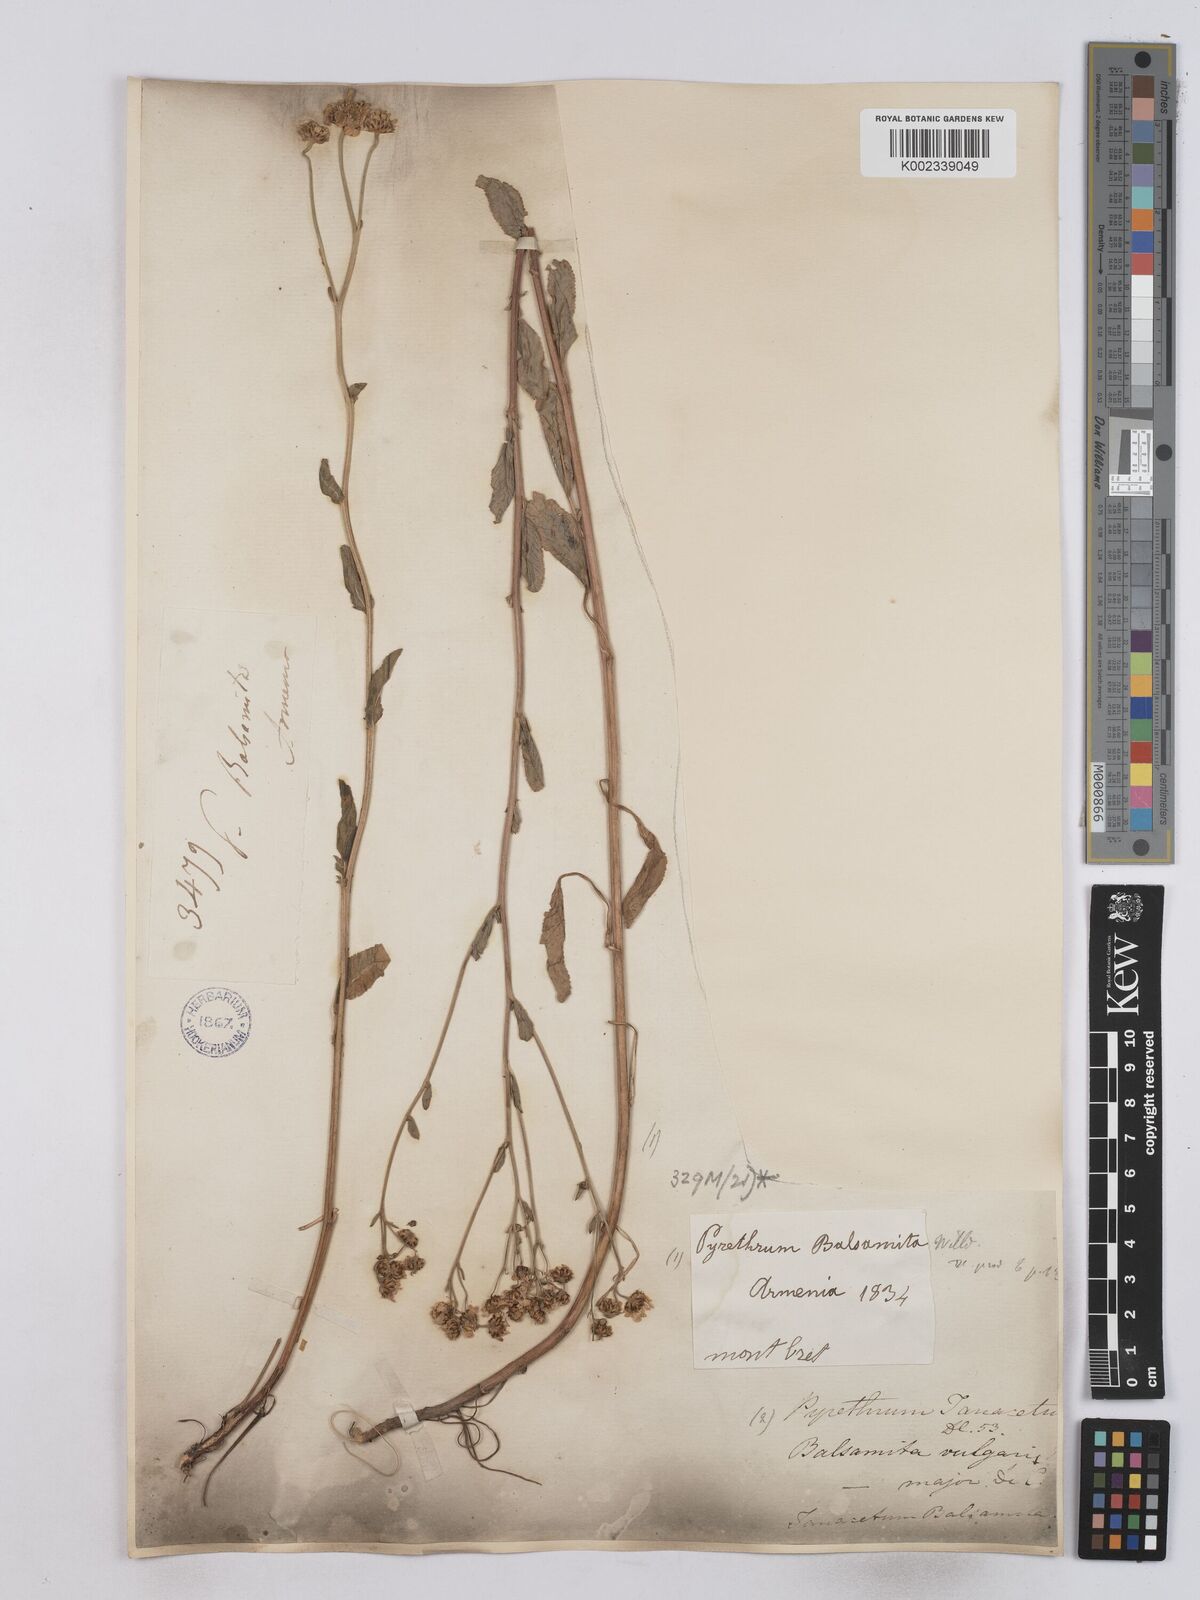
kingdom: Plantae
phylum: Tracheophyta
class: Magnoliopsida
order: Asterales
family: Asteraceae
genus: Tanacetum
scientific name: Tanacetum balsamita
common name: Costmary
